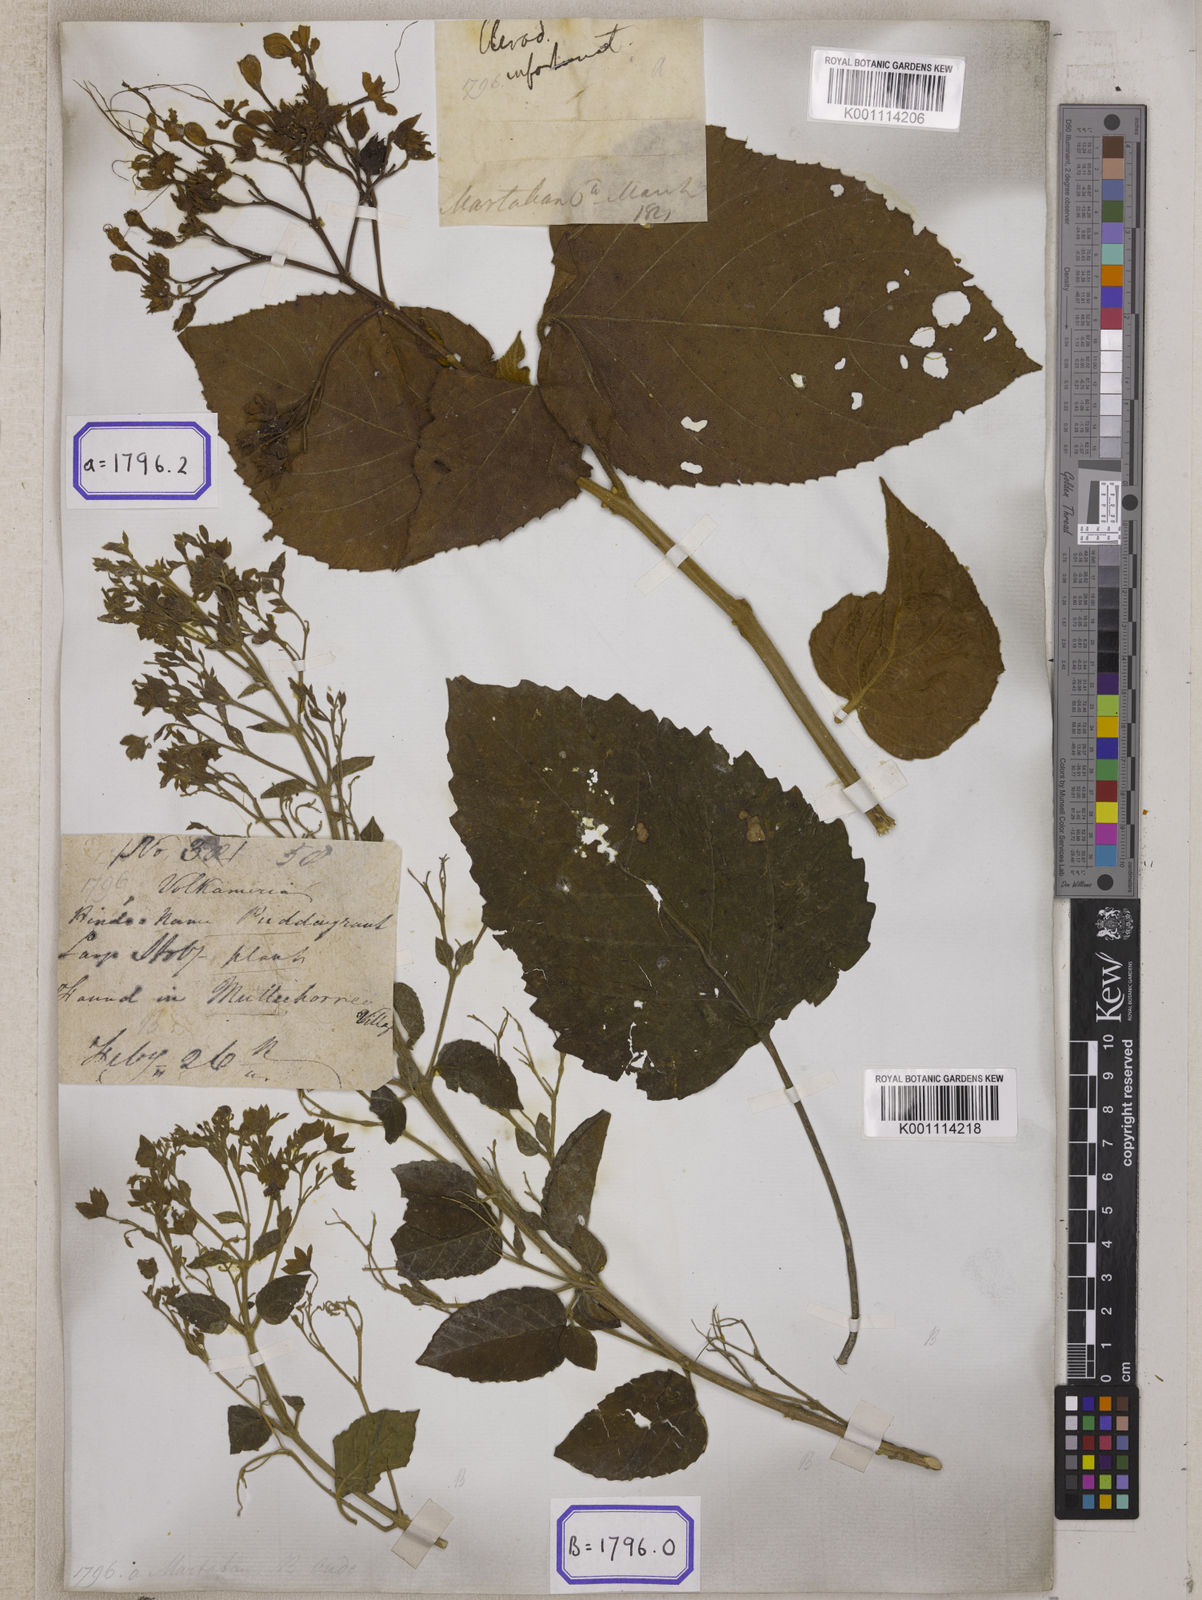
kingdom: Plantae
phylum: Tracheophyta
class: Magnoliopsida
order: Lamiales
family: Lamiaceae
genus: Clerodendrum
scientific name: Clerodendrum infortunatum
